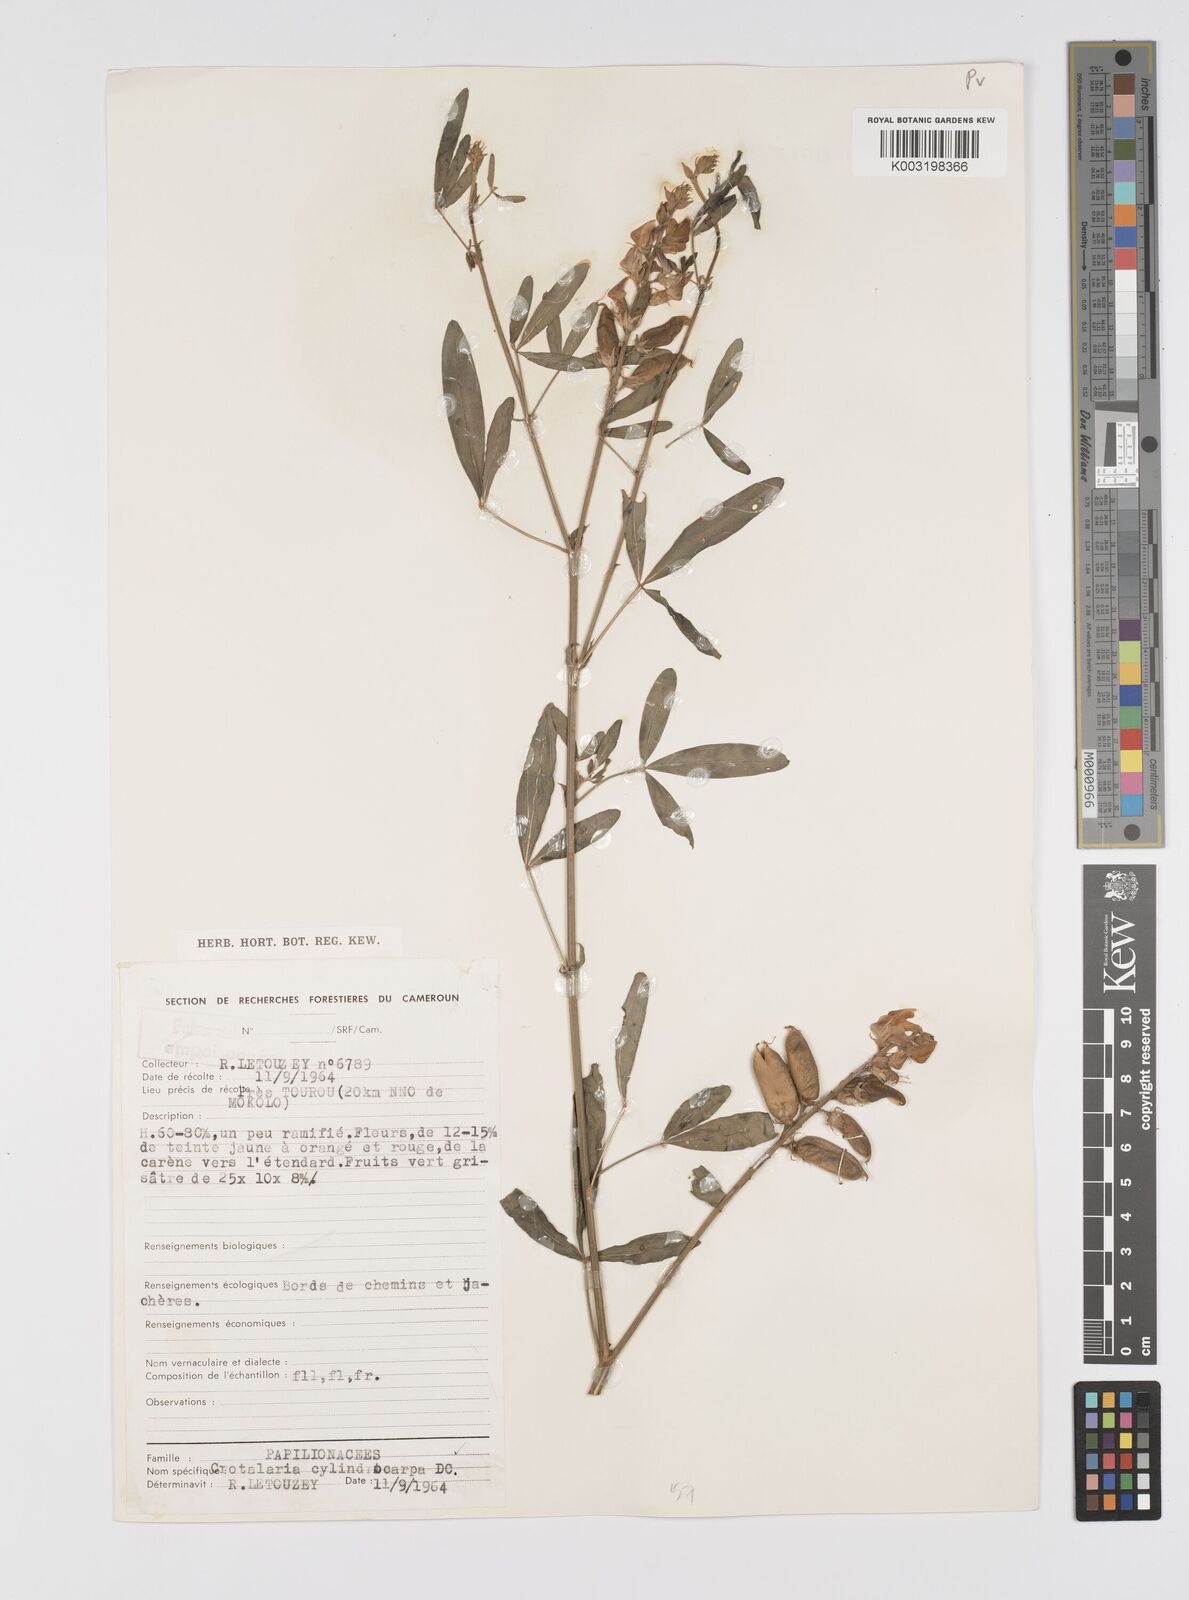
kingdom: Plantae
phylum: Tracheophyta
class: Magnoliopsida
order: Fabales
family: Fabaceae
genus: Crotalaria
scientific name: Crotalaria cylindrocarpa
